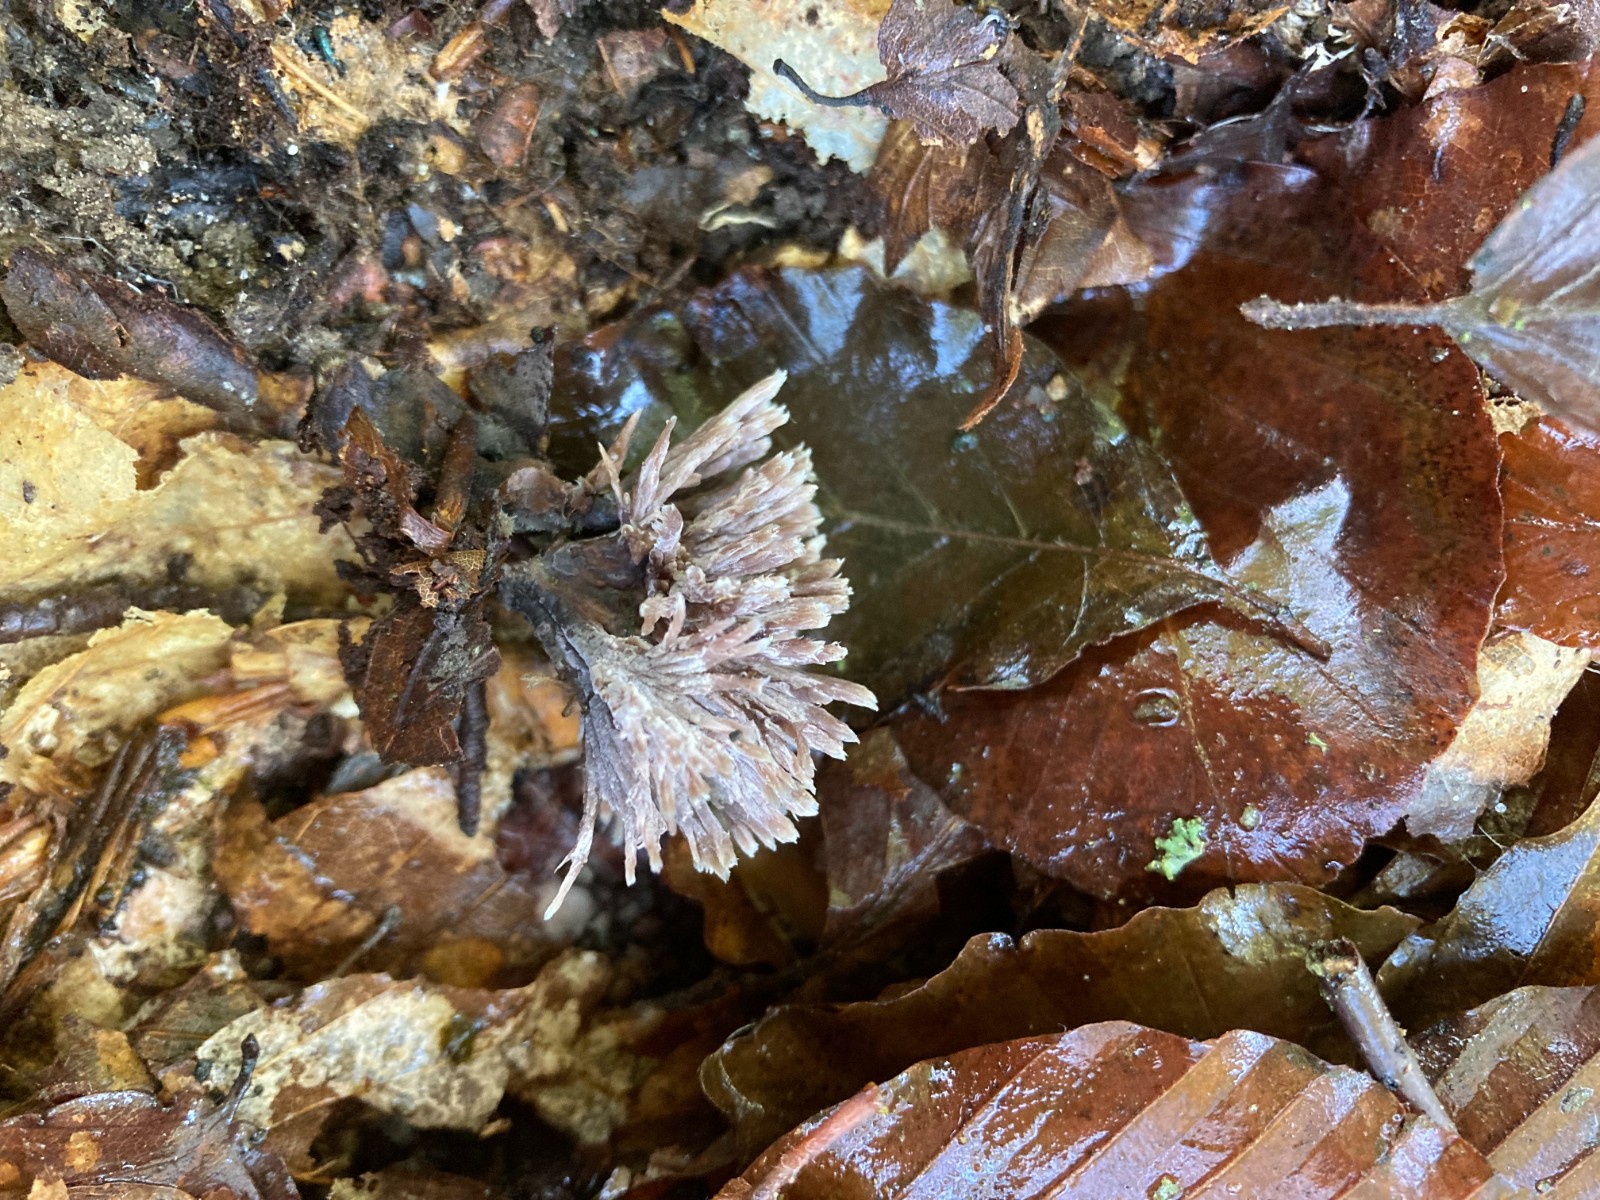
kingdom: Fungi
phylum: Basidiomycota
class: Agaricomycetes
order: Thelephorales
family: Thelephoraceae
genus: Thelephora
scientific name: Thelephora anthocephala
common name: busk-frynsesvamp
